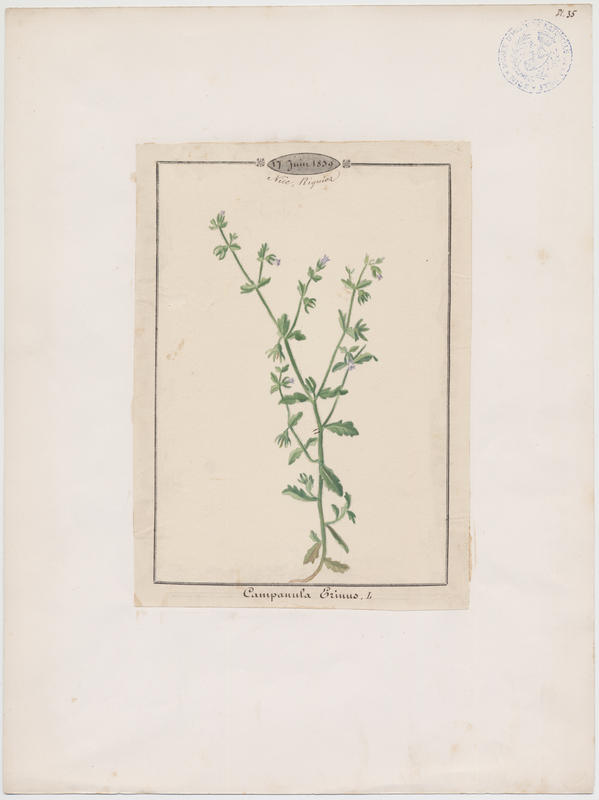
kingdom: Plantae
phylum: Tracheophyta
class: Magnoliopsida
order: Asterales
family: Campanulaceae
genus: Campanula
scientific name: Campanula erinus
